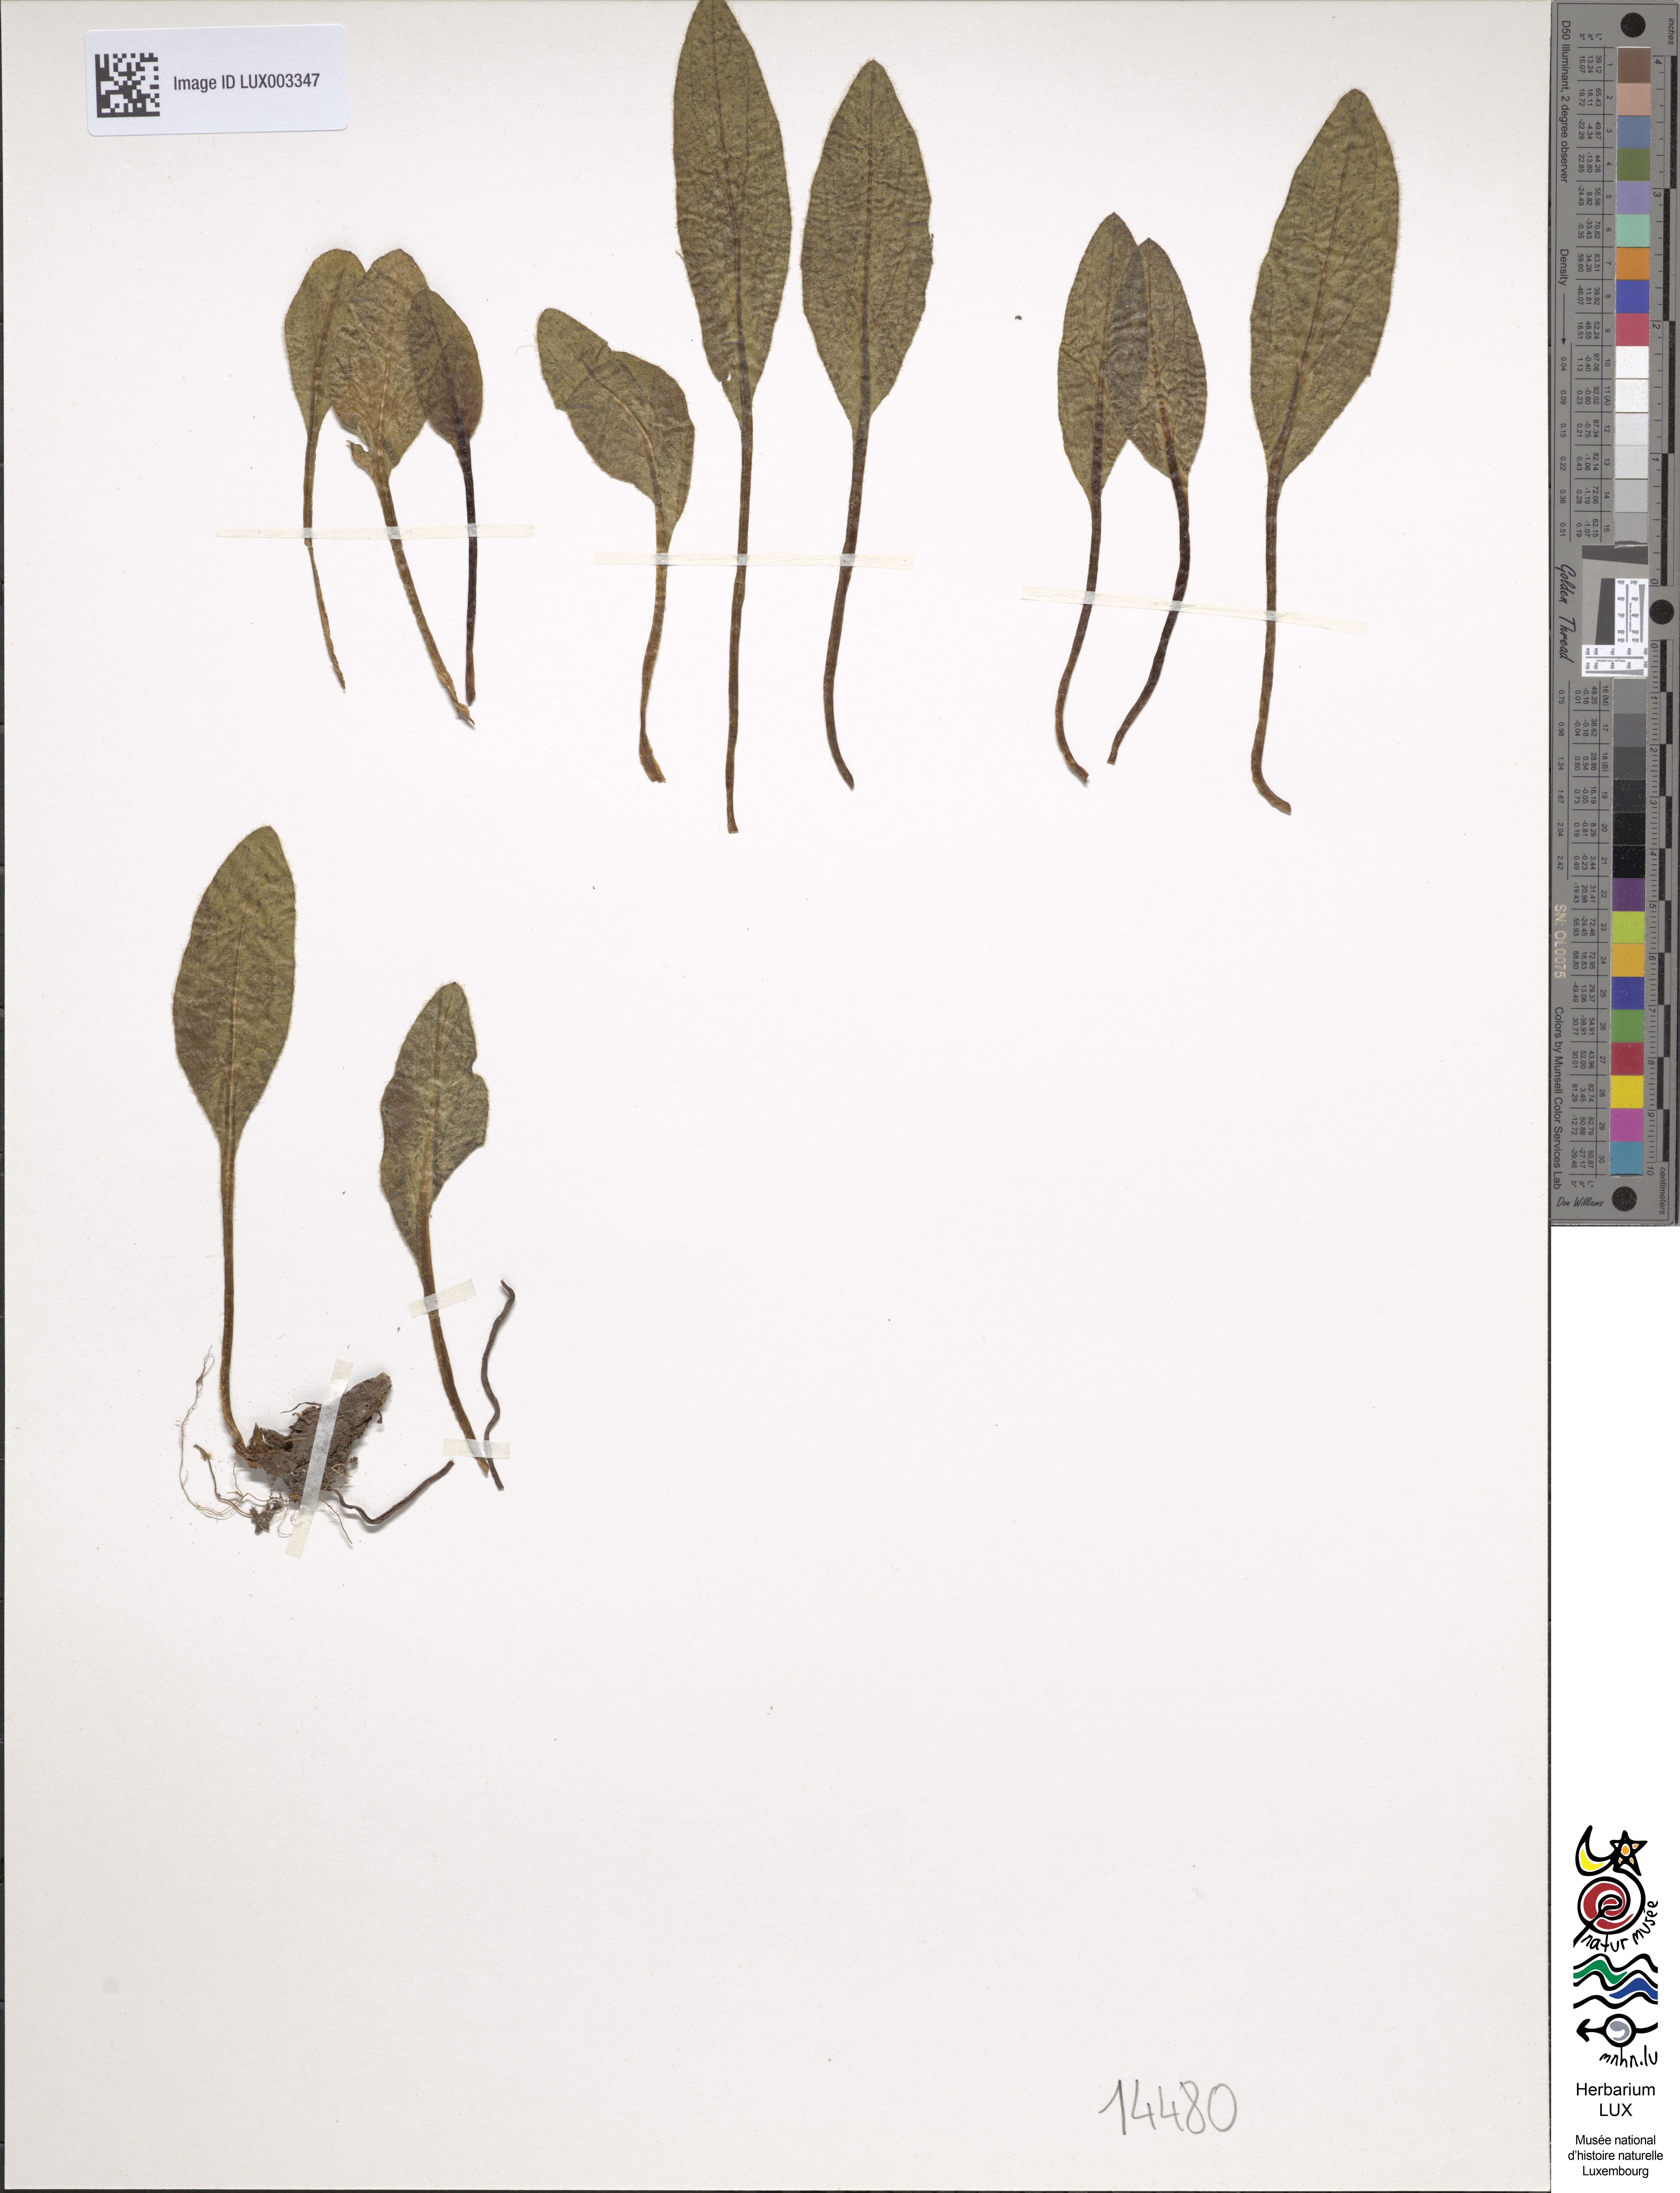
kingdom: Plantae
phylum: Tracheophyta
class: Magnoliopsida
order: Asterales
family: Asteraceae
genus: Doronicum
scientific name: Doronicum clusii
